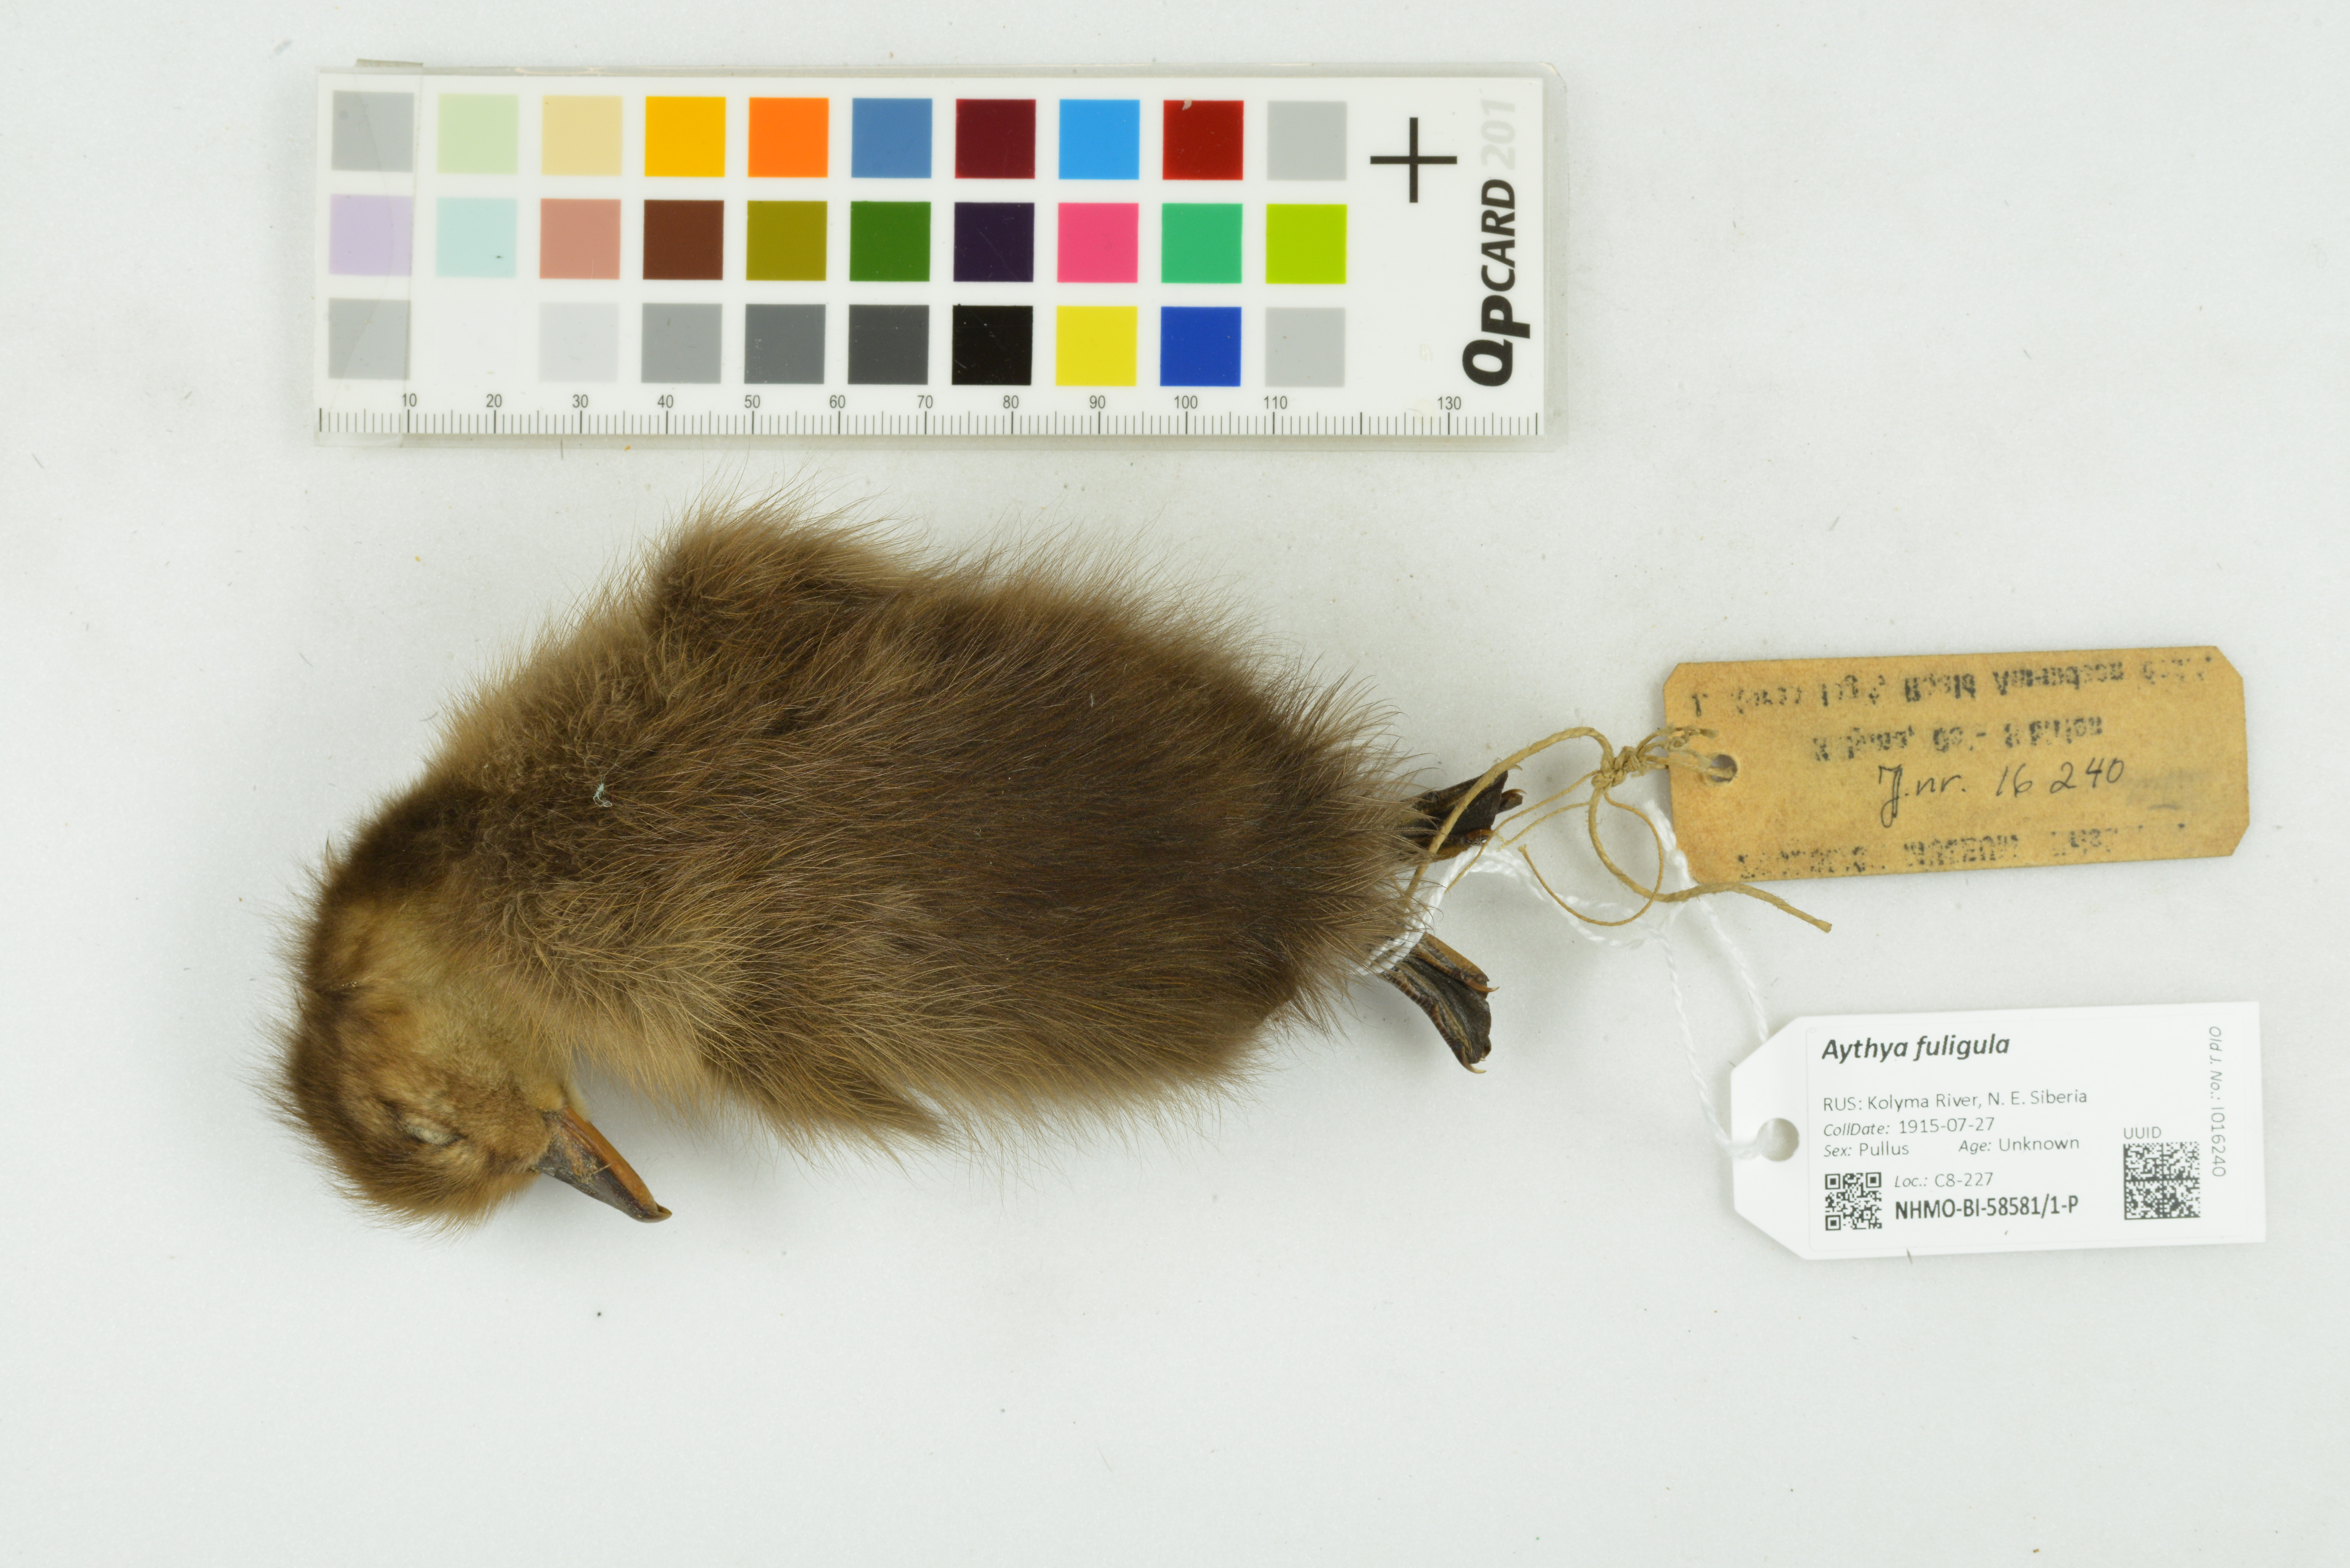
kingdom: Animalia
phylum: Chordata
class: Aves
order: Anseriformes
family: Anatidae
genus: Aythya
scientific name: Aythya fuligula
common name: Tufted duck
